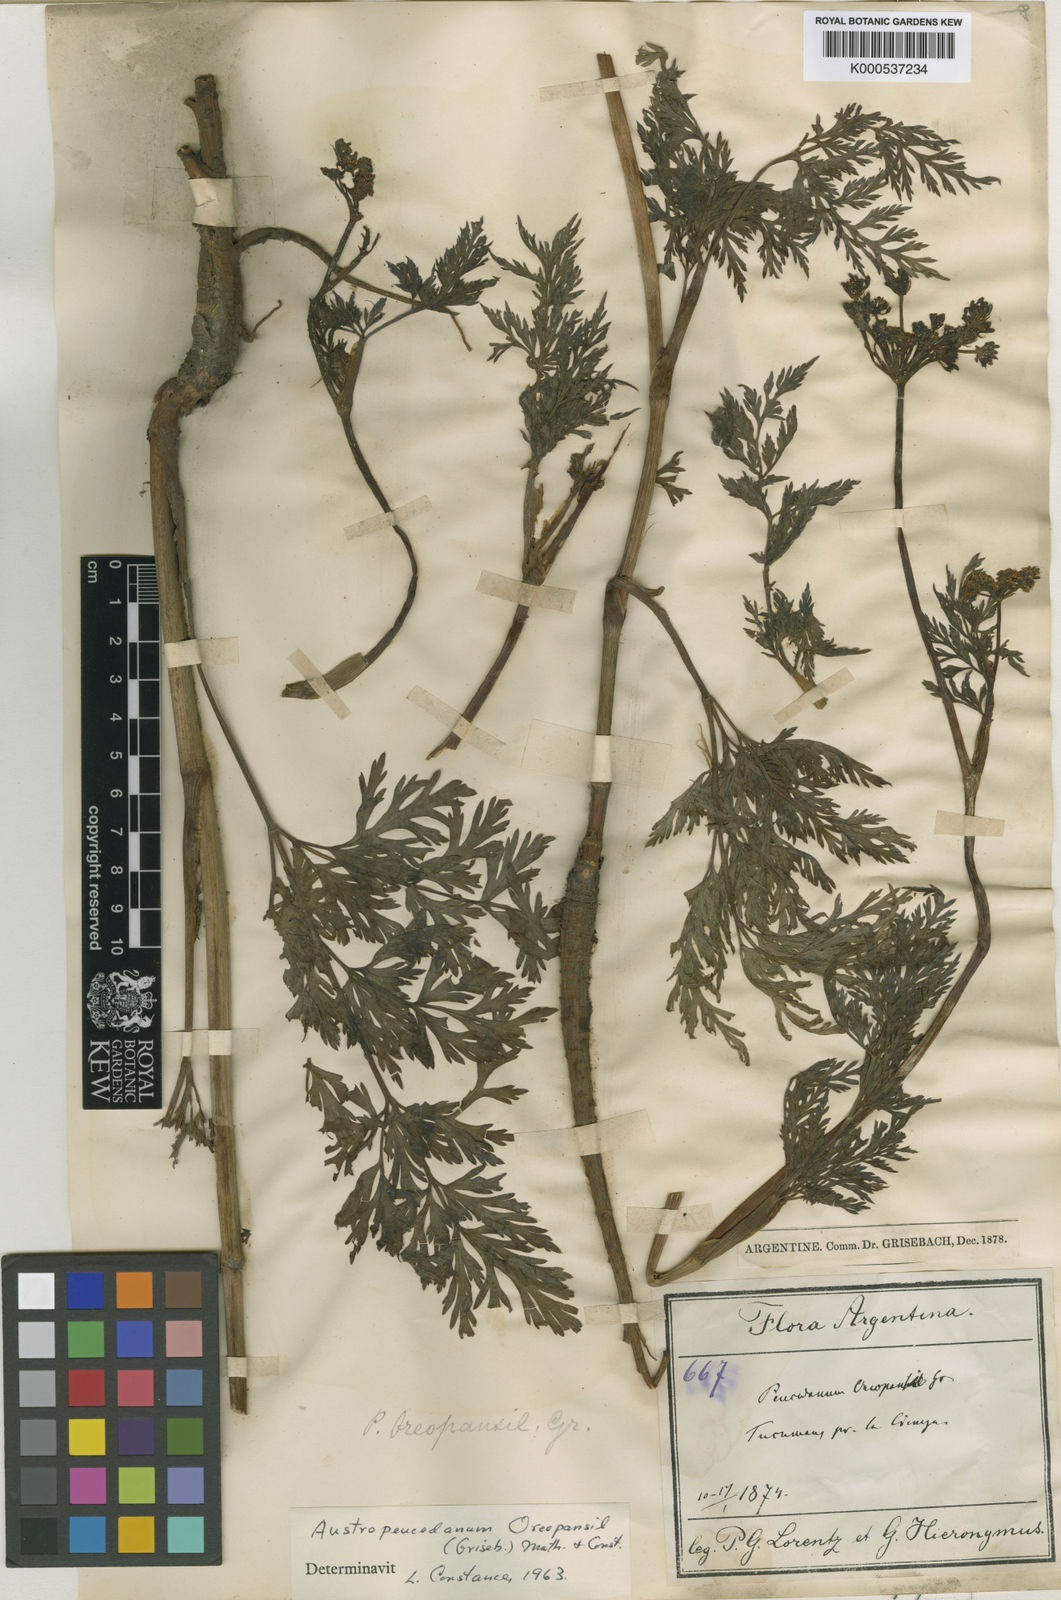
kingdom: Plantae
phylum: Tracheophyta
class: Magnoliopsida
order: Apiales
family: Apiaceae
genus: Austropeucedanum
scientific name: Austropeucedanum oreopansii
